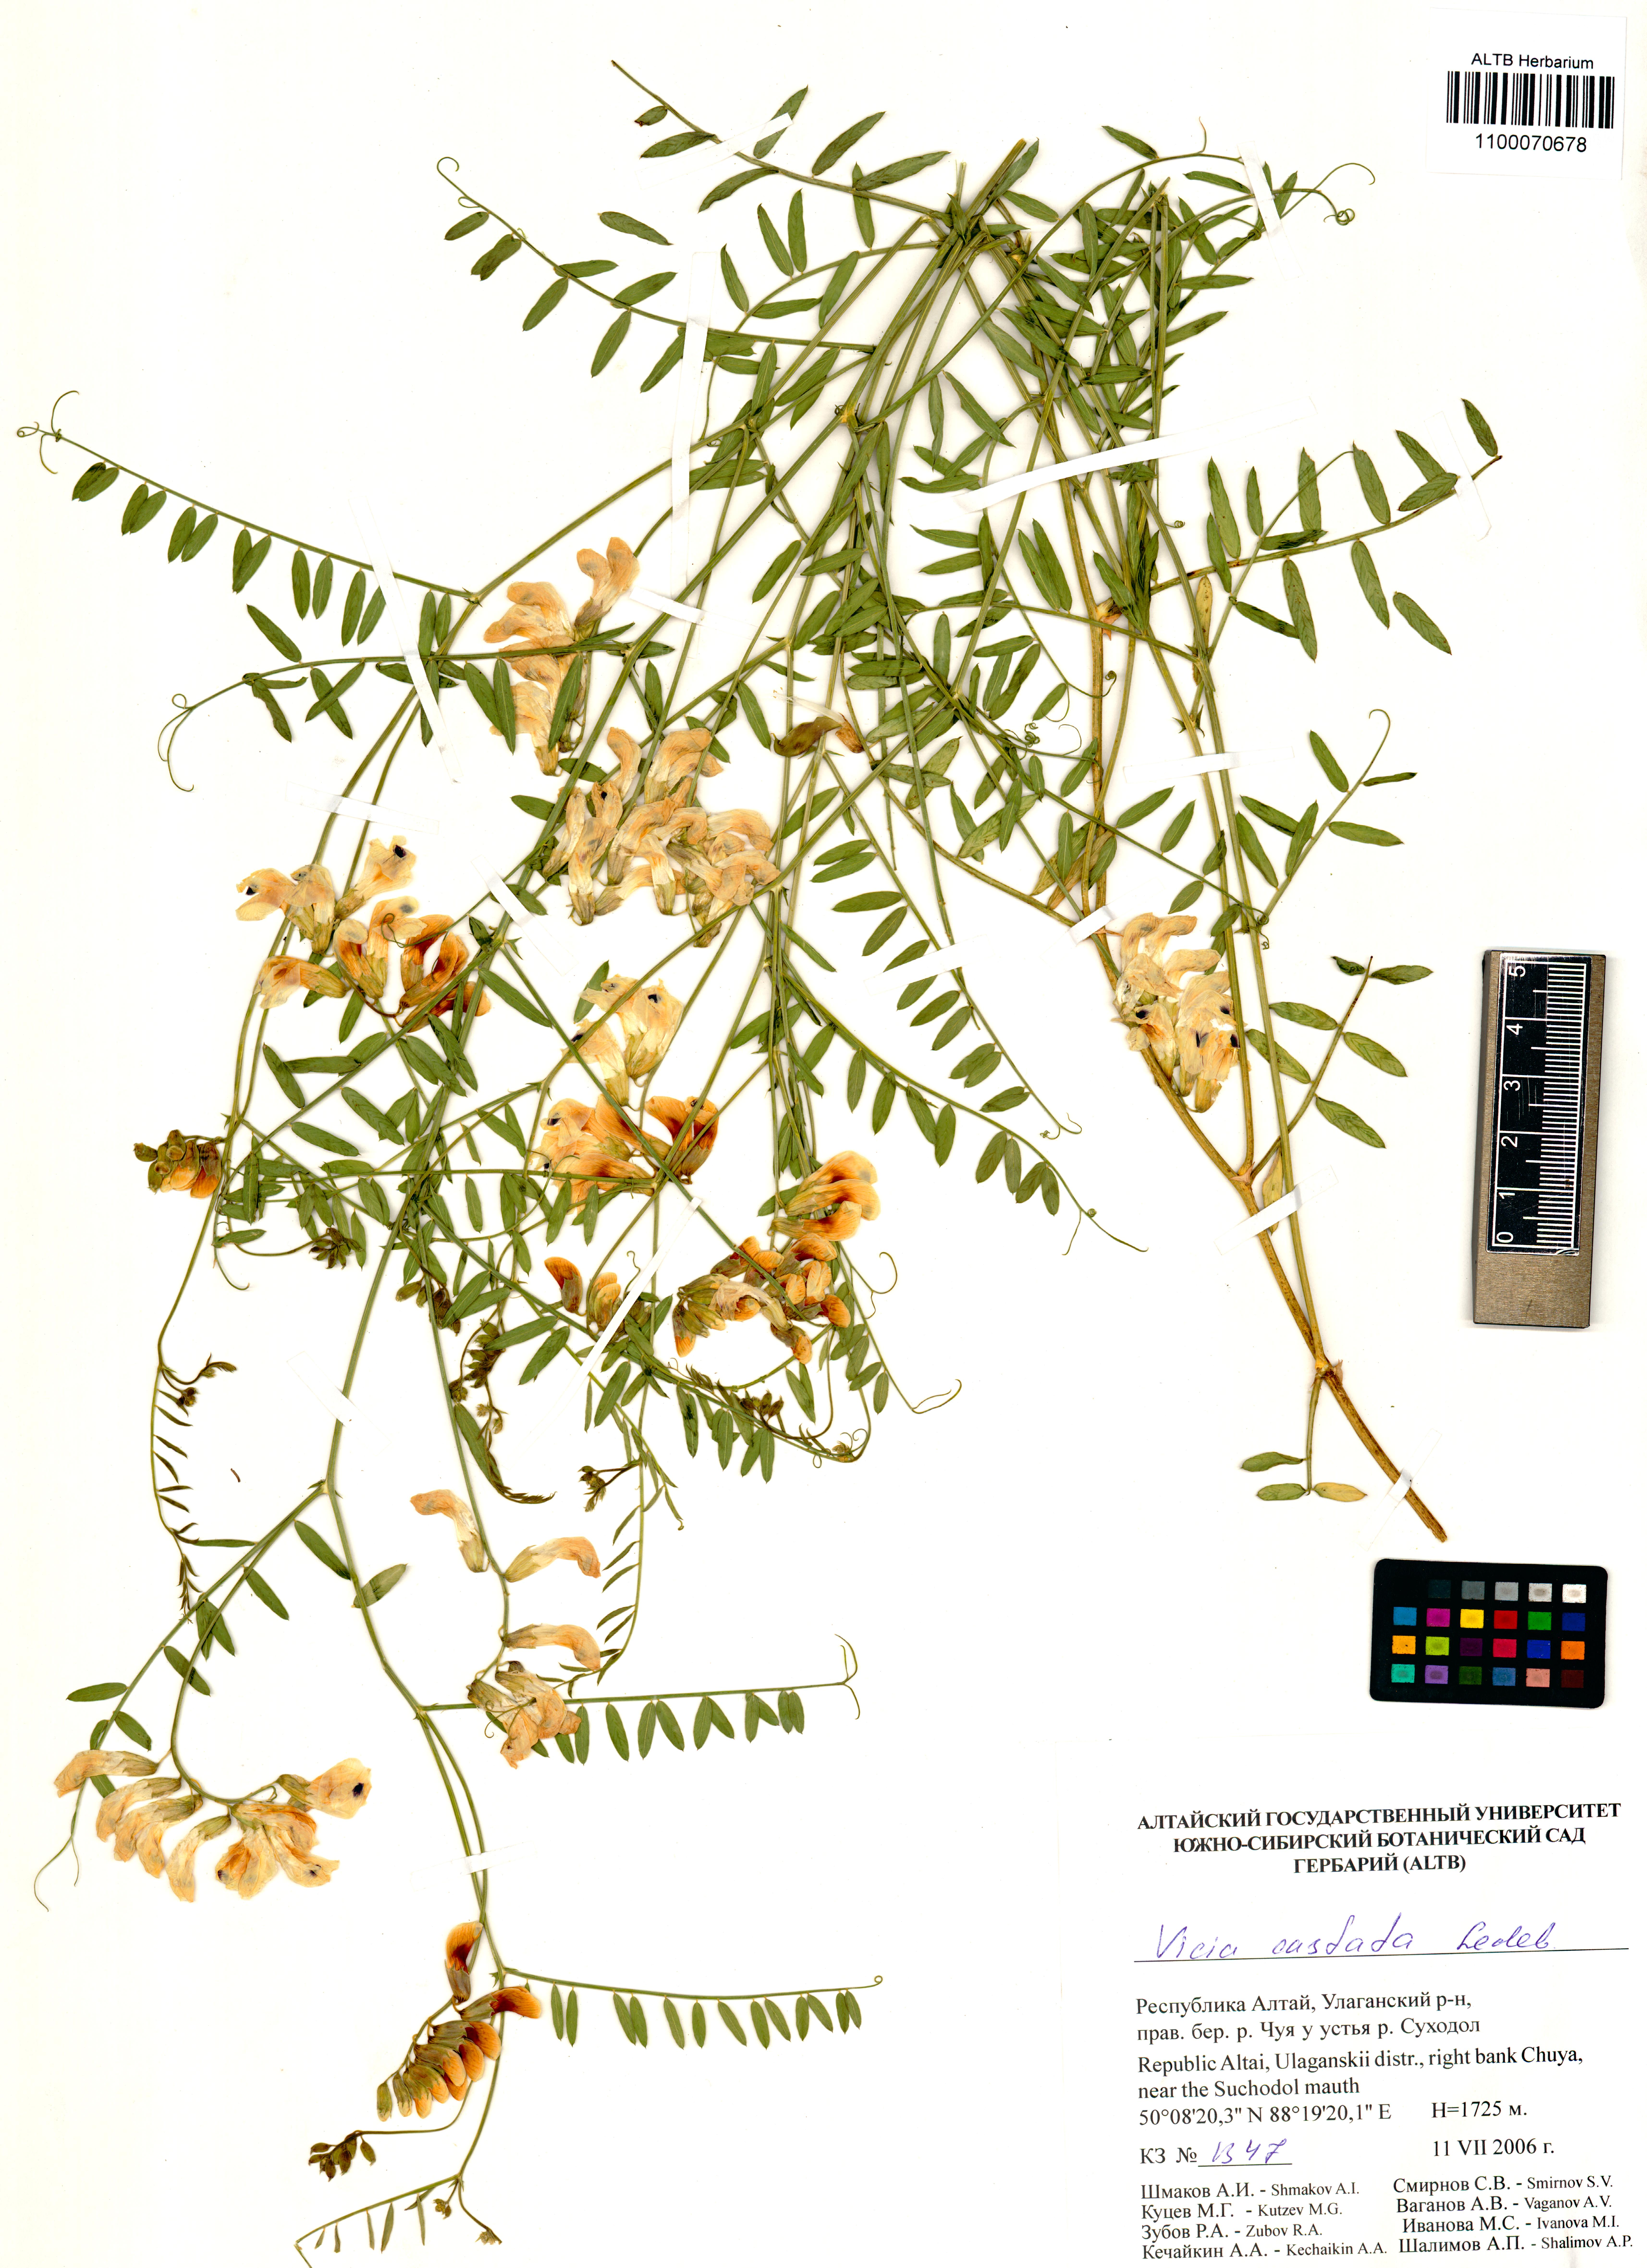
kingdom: Plantae
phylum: Tracheophyta
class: Magnoliopsida
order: Fabales
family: Fabaceae
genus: Vicia
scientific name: Vicia costata
